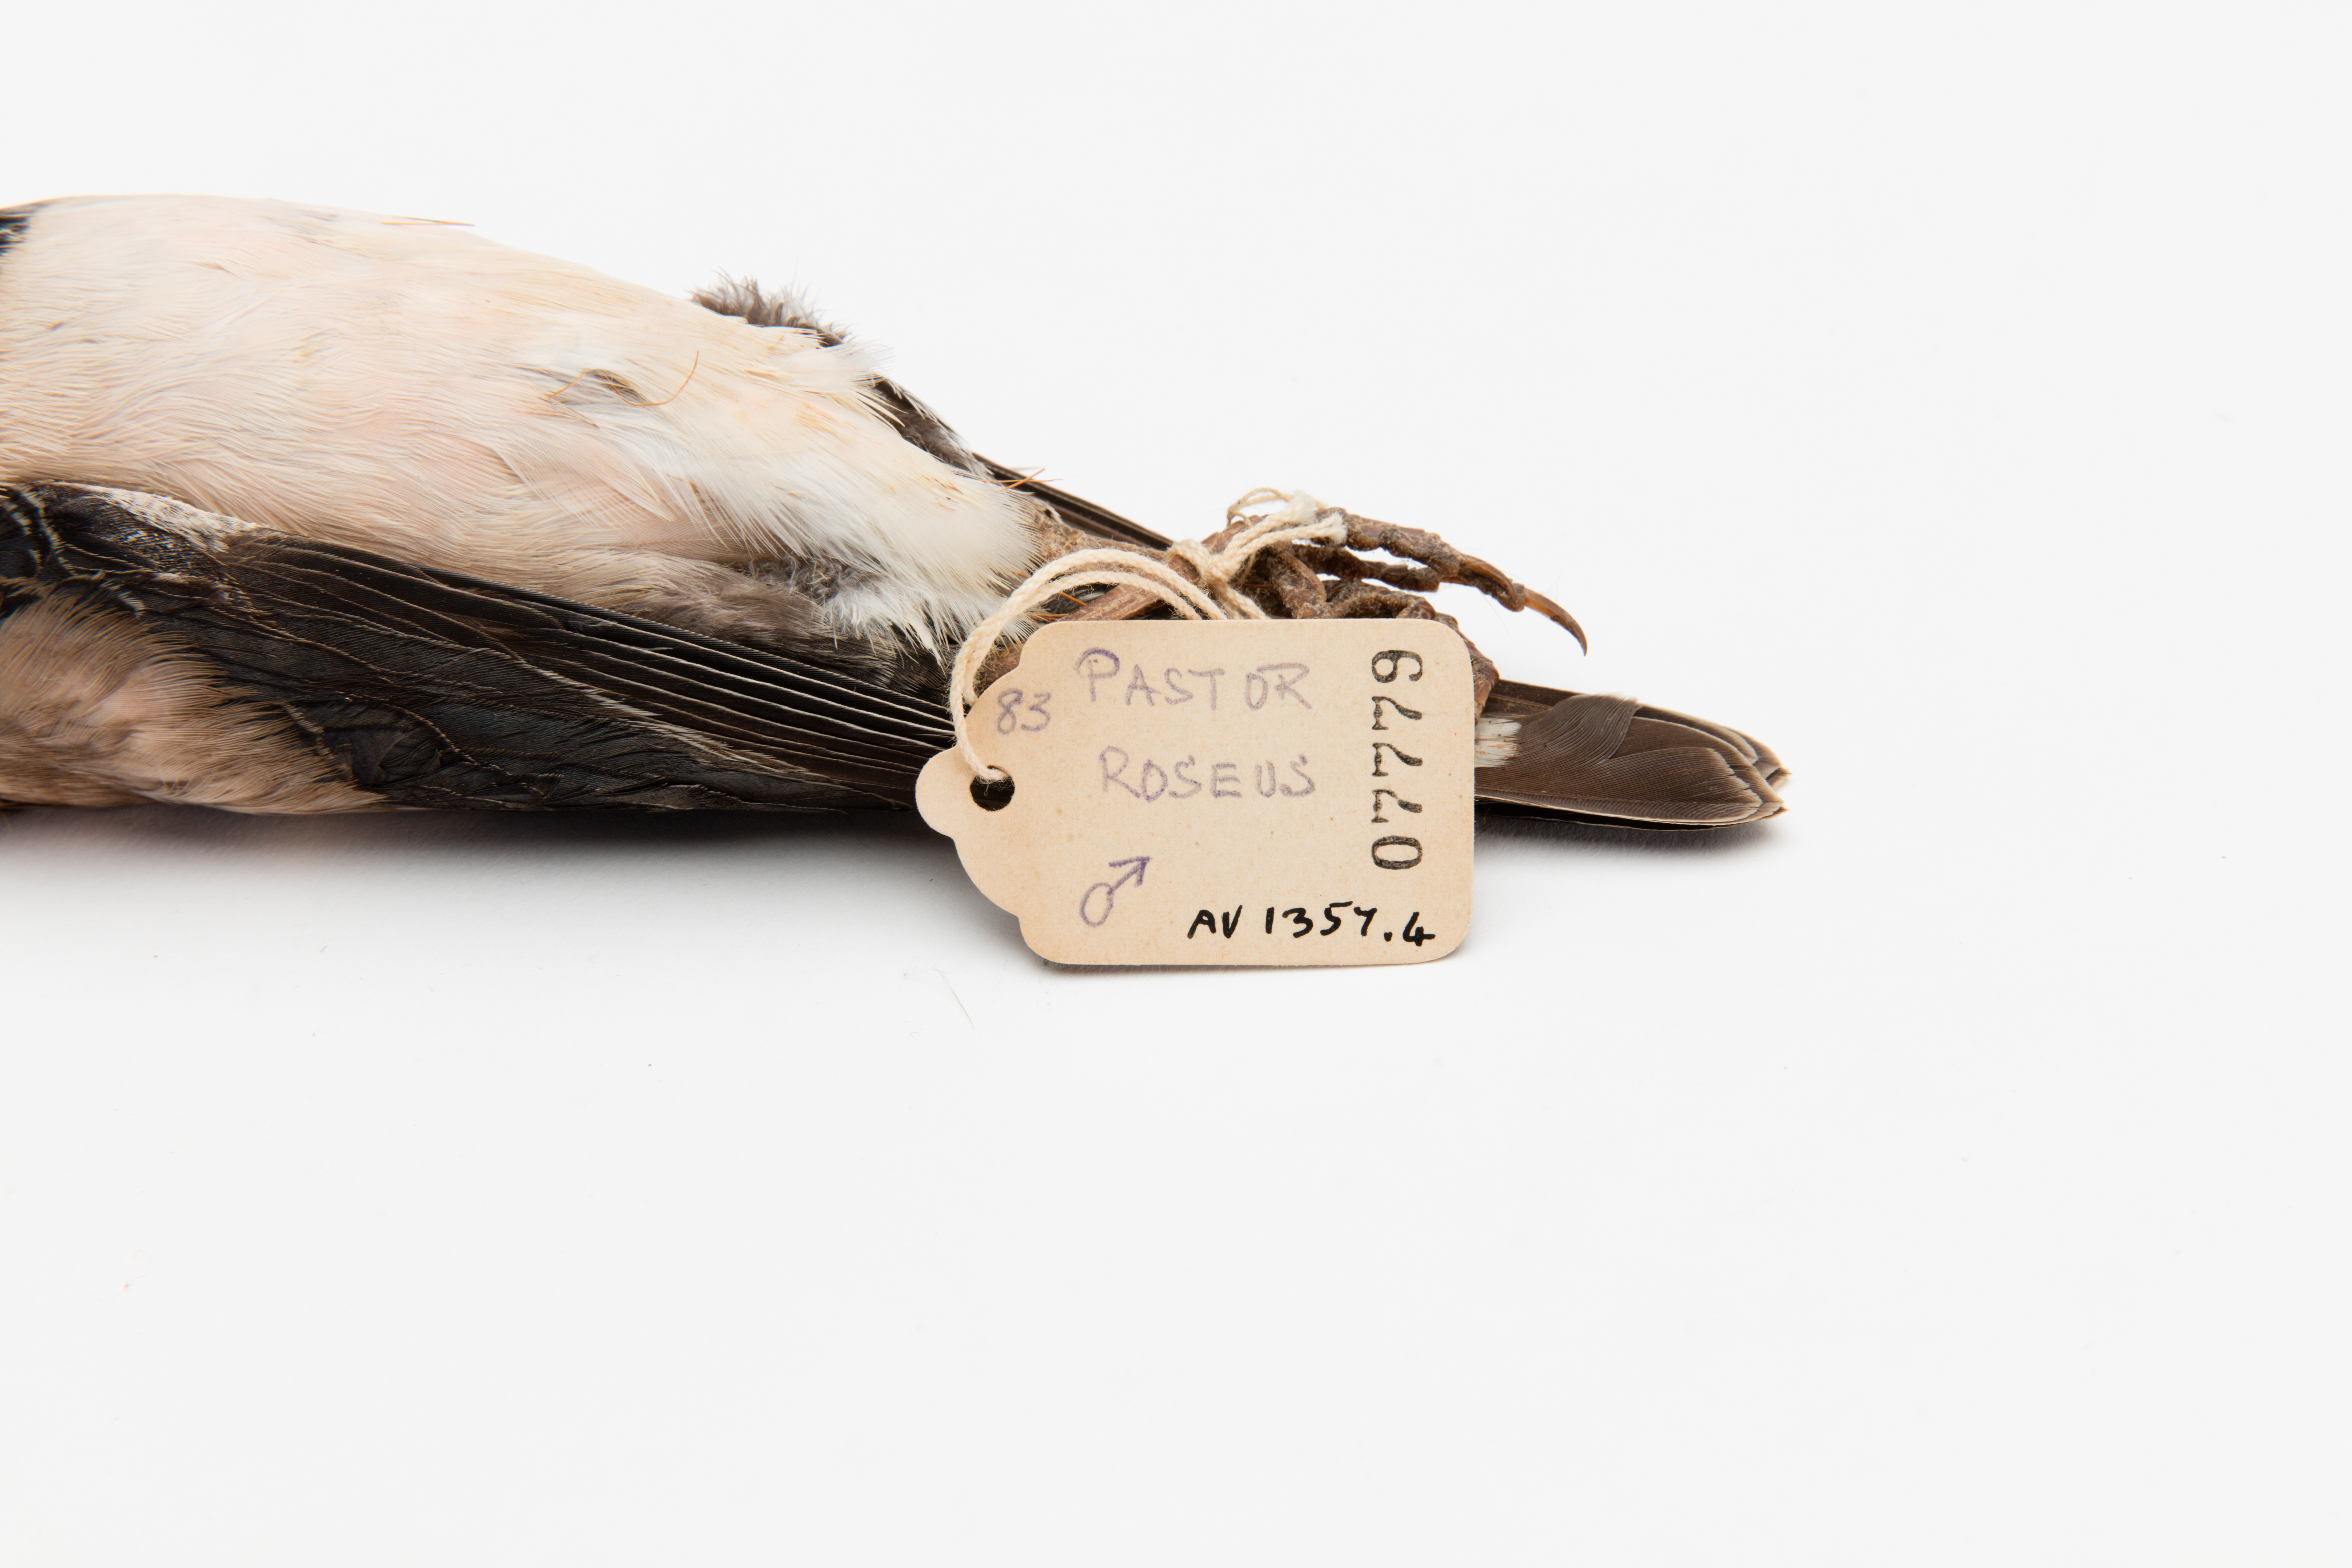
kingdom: Animalia
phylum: Chordata
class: Aves
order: Passeriformes
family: Sturnidae
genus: Pastor
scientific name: Pastor roseus
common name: Rosy starling
